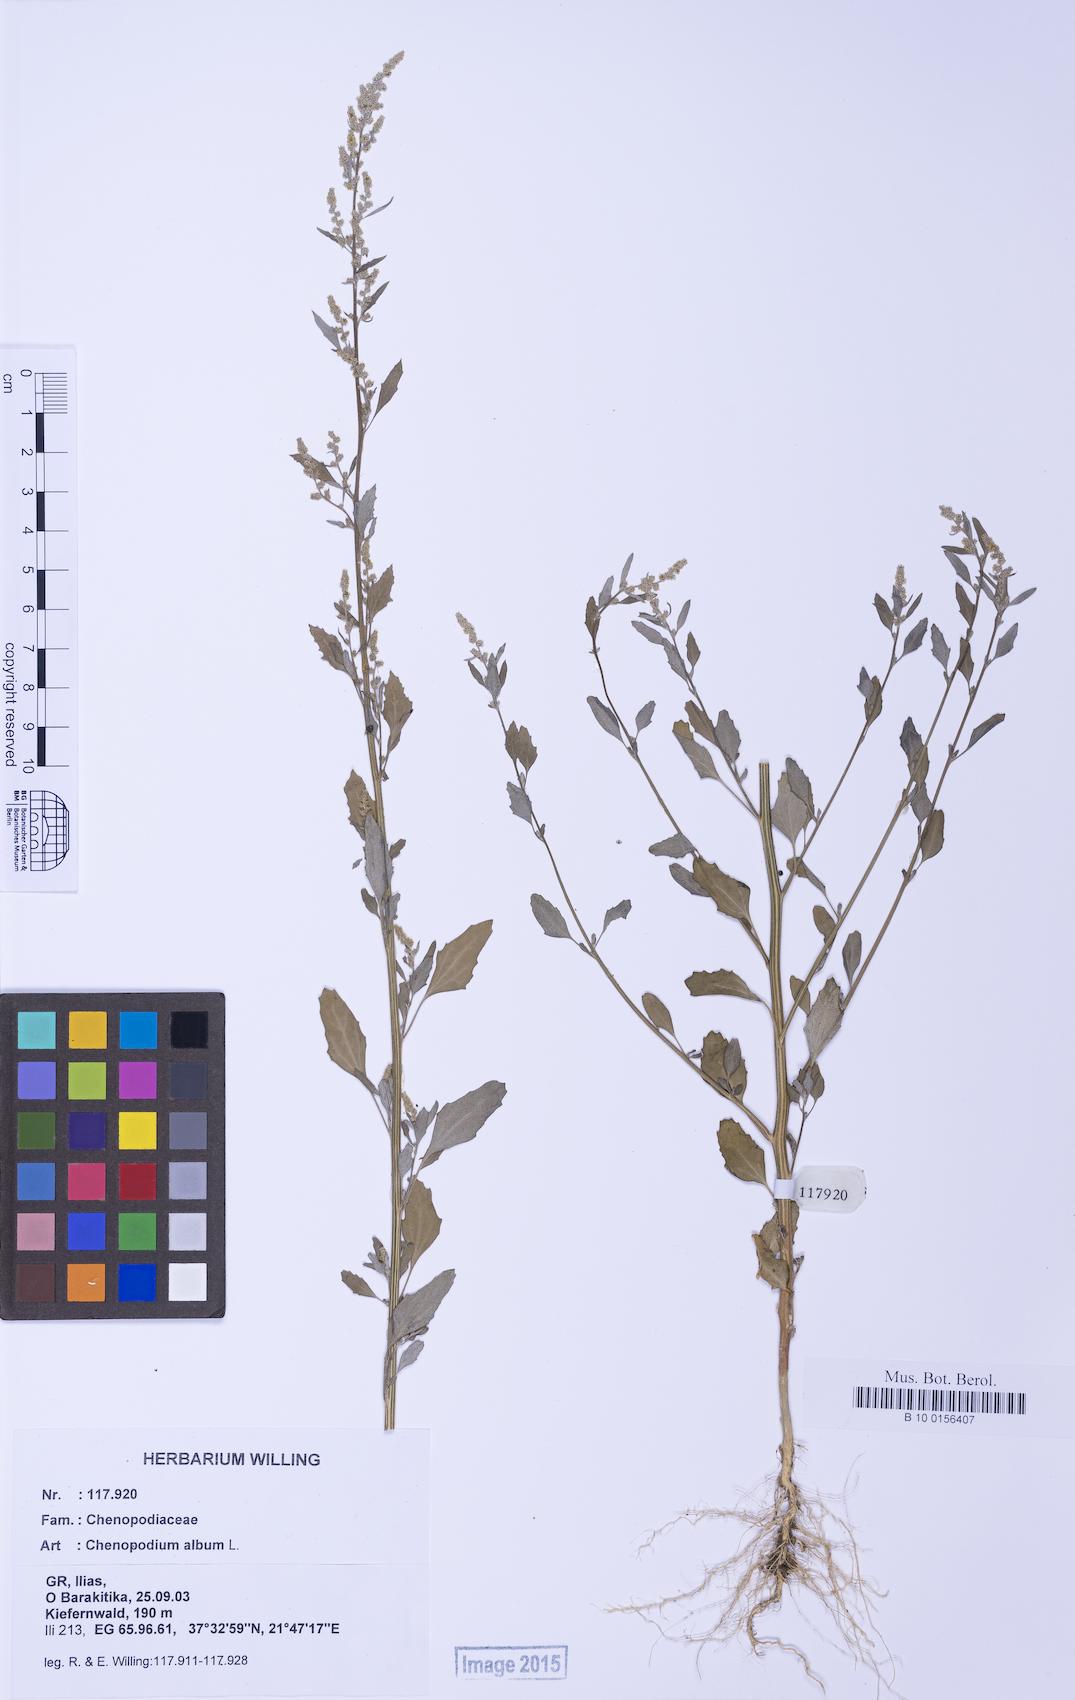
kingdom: Plantae
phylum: Tracheophyta
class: Magnoliopsida
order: Caryophyllales
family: Amaranthaceae
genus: Chenopodium
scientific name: Chenopodium album
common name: Fat-hen
